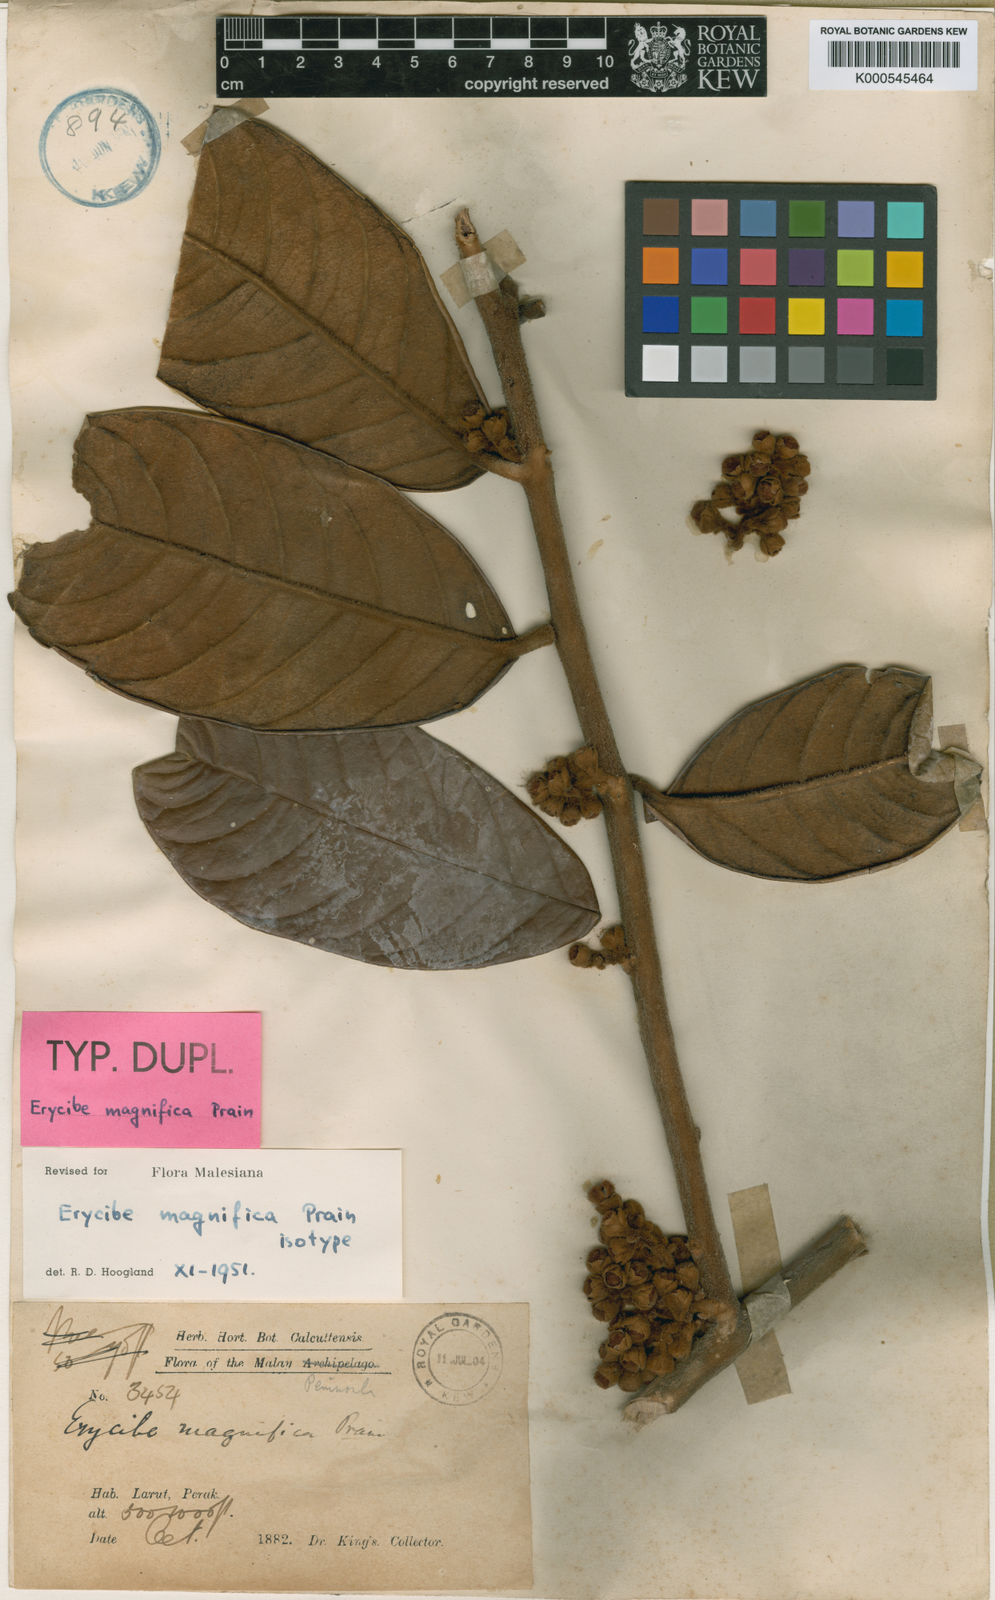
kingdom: Plantae
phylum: Tracheophyta
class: Magnoliopsida
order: Solanales
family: Convolvulaceae
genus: Erycibe
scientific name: Erycibe magnifica
